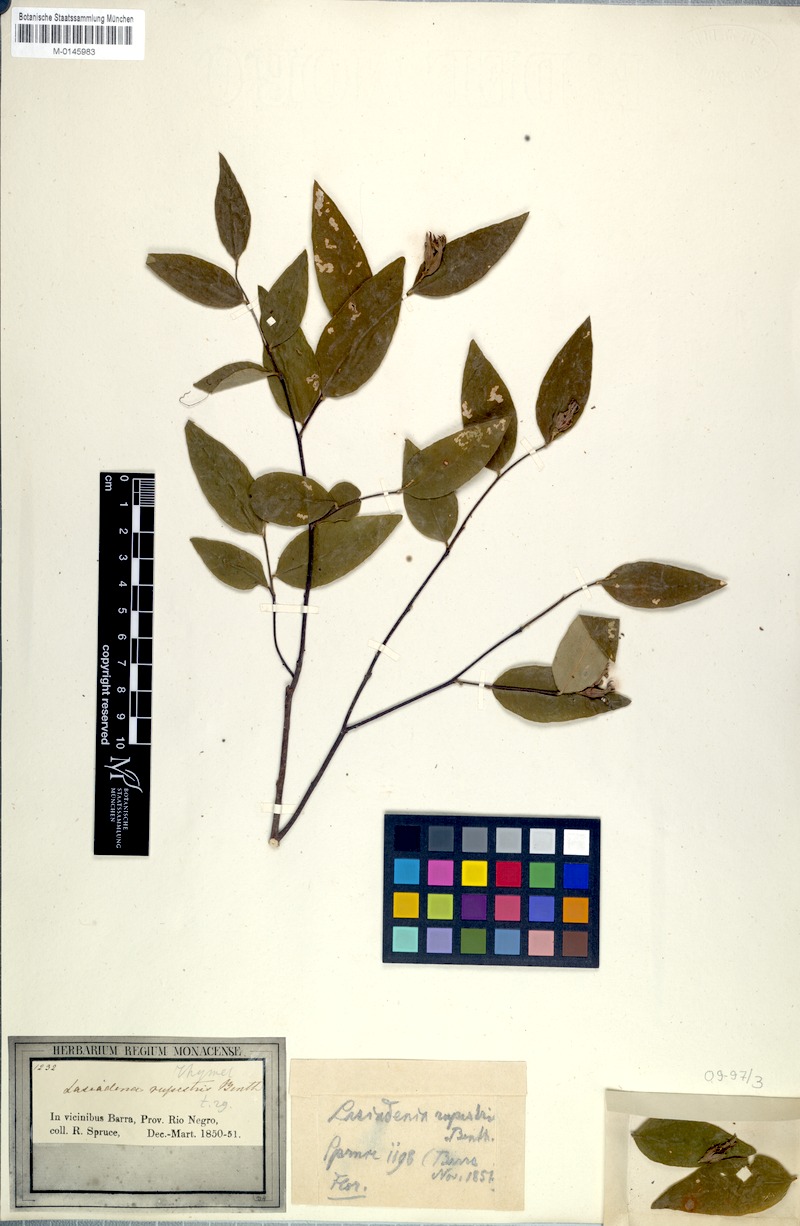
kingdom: Plantae
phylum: Tracheophyta
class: Magnoliopsida
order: Malvales
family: Thymelaeaceae
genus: Lasiadenia
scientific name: Lasiadenia rupestris
